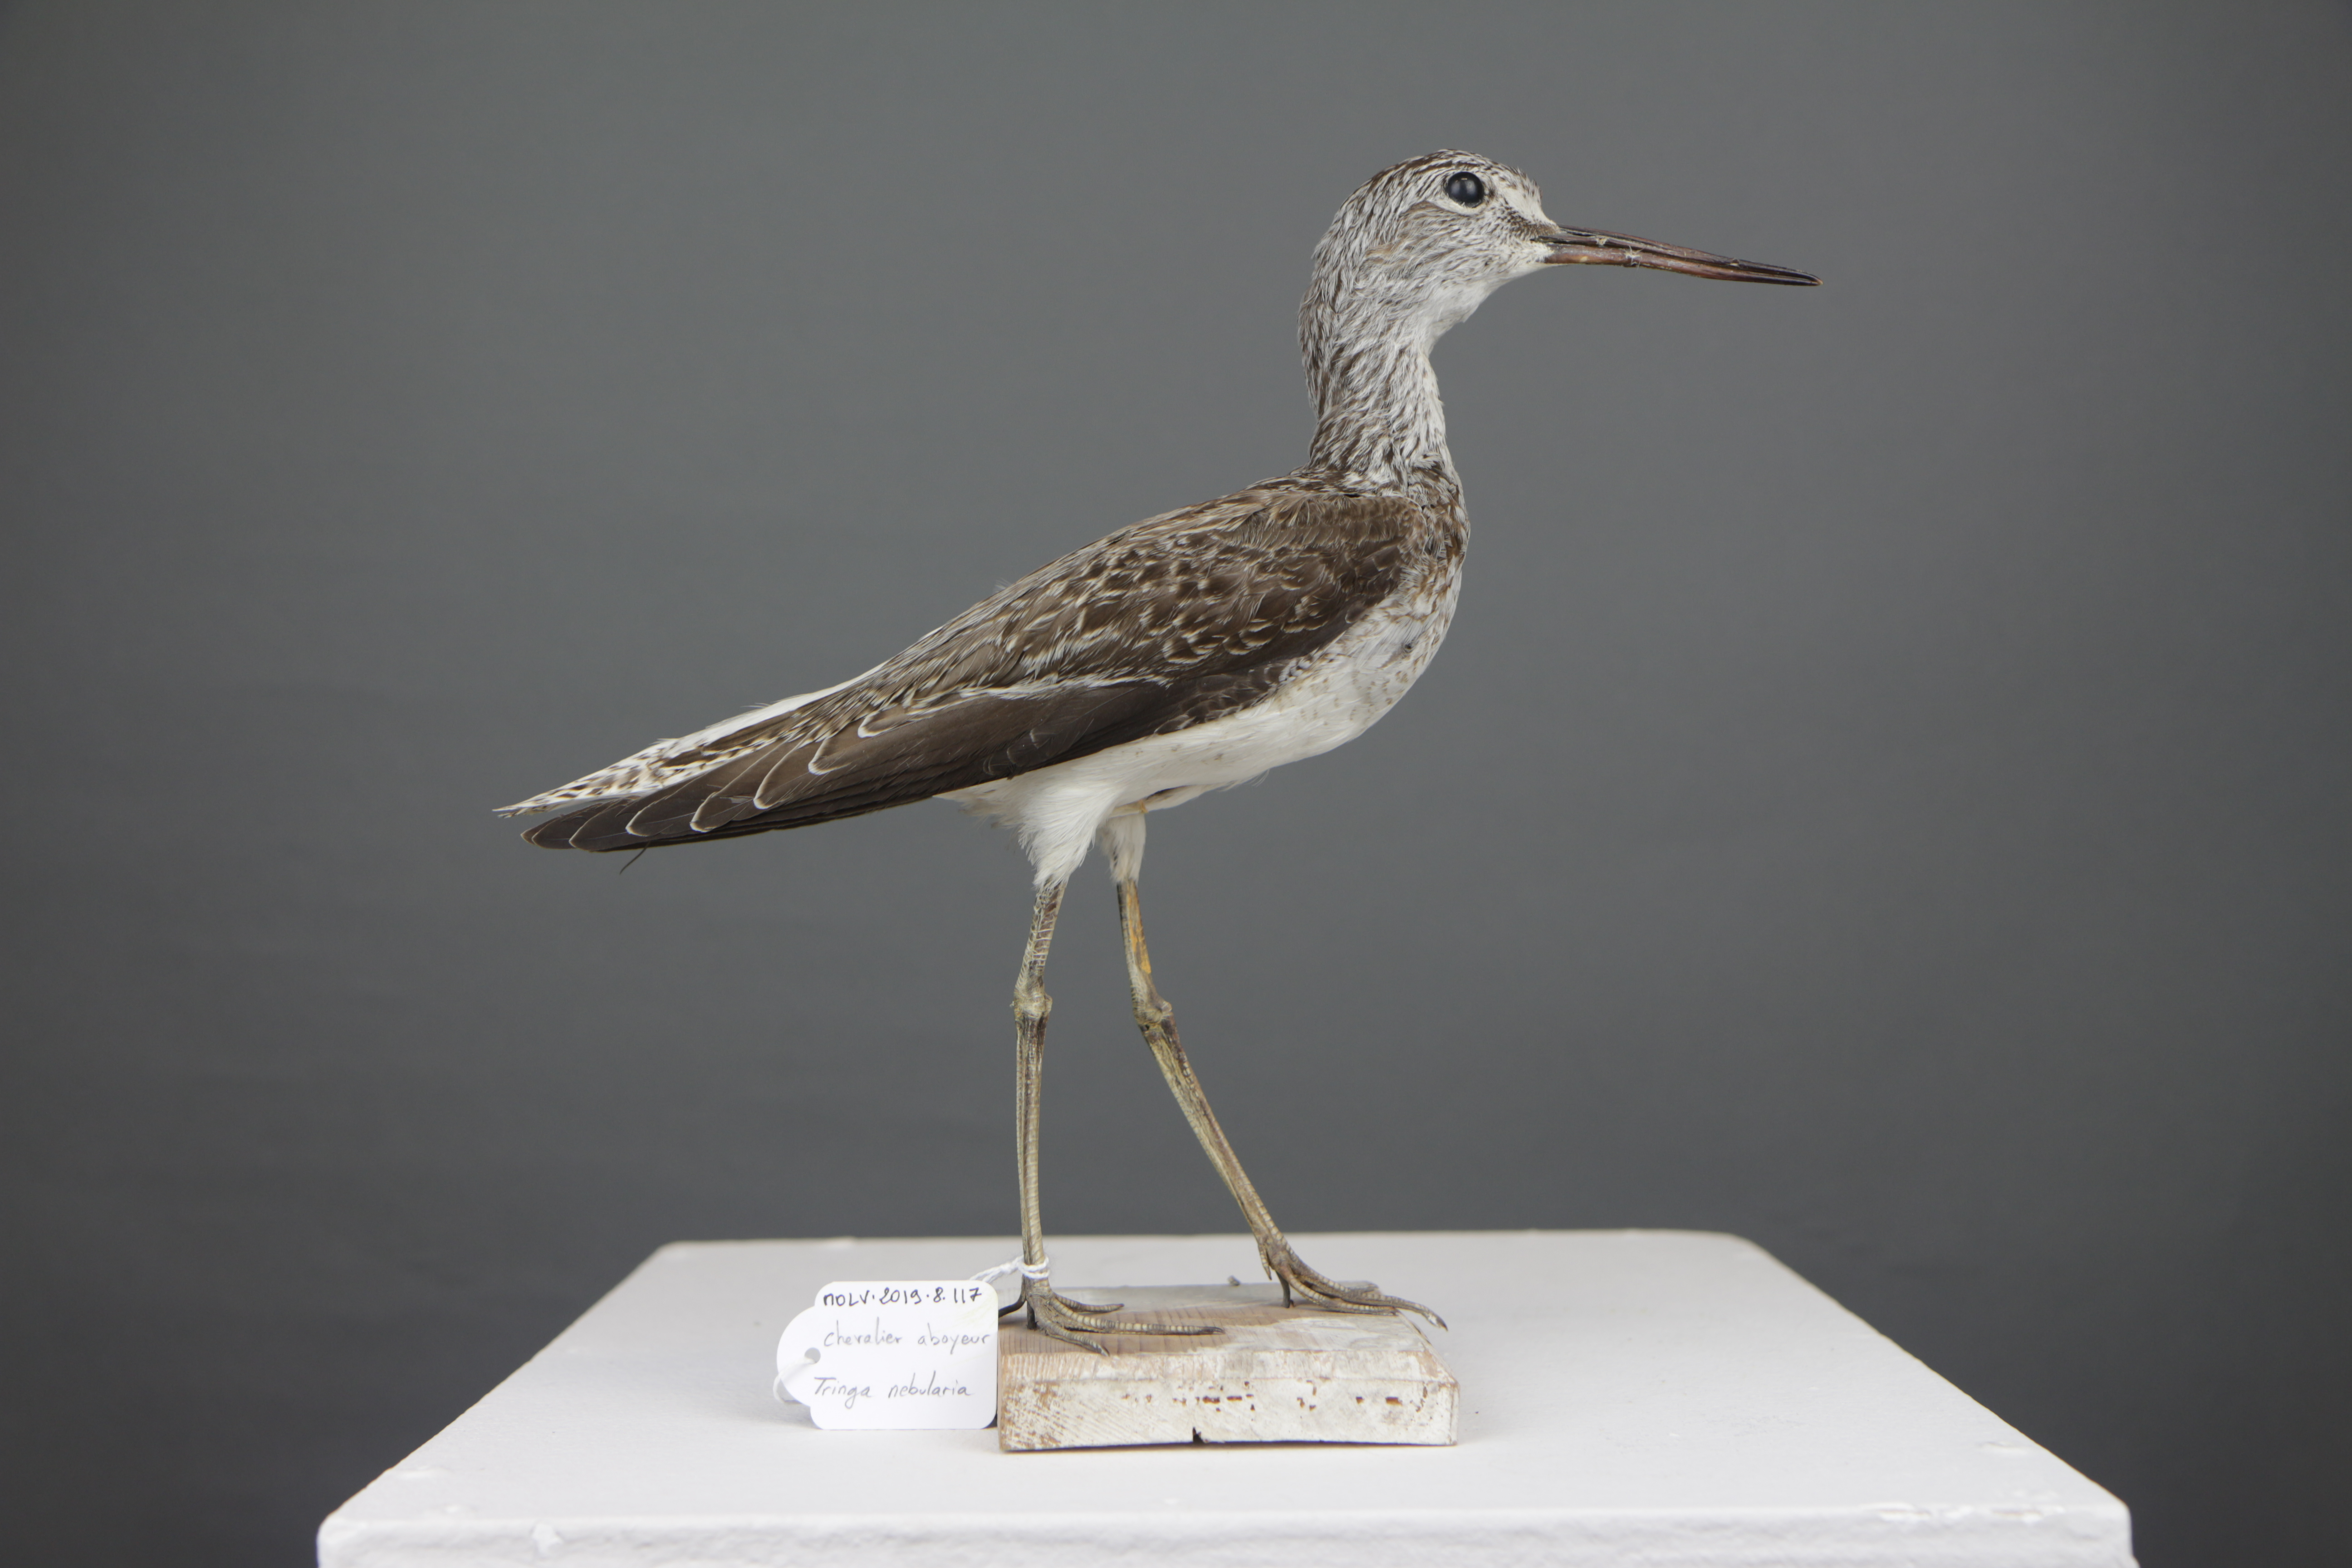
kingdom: Animalia
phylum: Chordata
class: Aves
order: Charadriiformes
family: Scolopacidae
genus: Tringa
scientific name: Tringa nebularia
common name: Common greenshank
